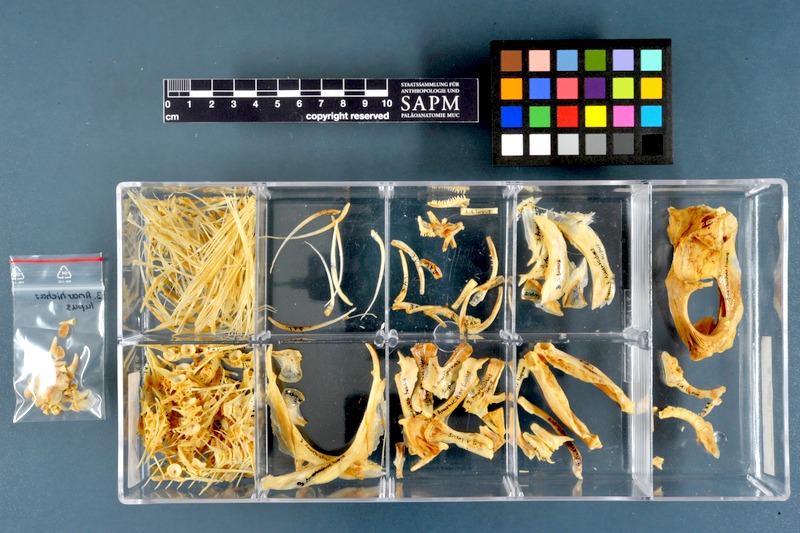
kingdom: Animalia
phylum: Chordata
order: Perciformes
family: Anarhichadidae
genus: Anarhichas
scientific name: Anarhichas lupus
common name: Wolf-fish
